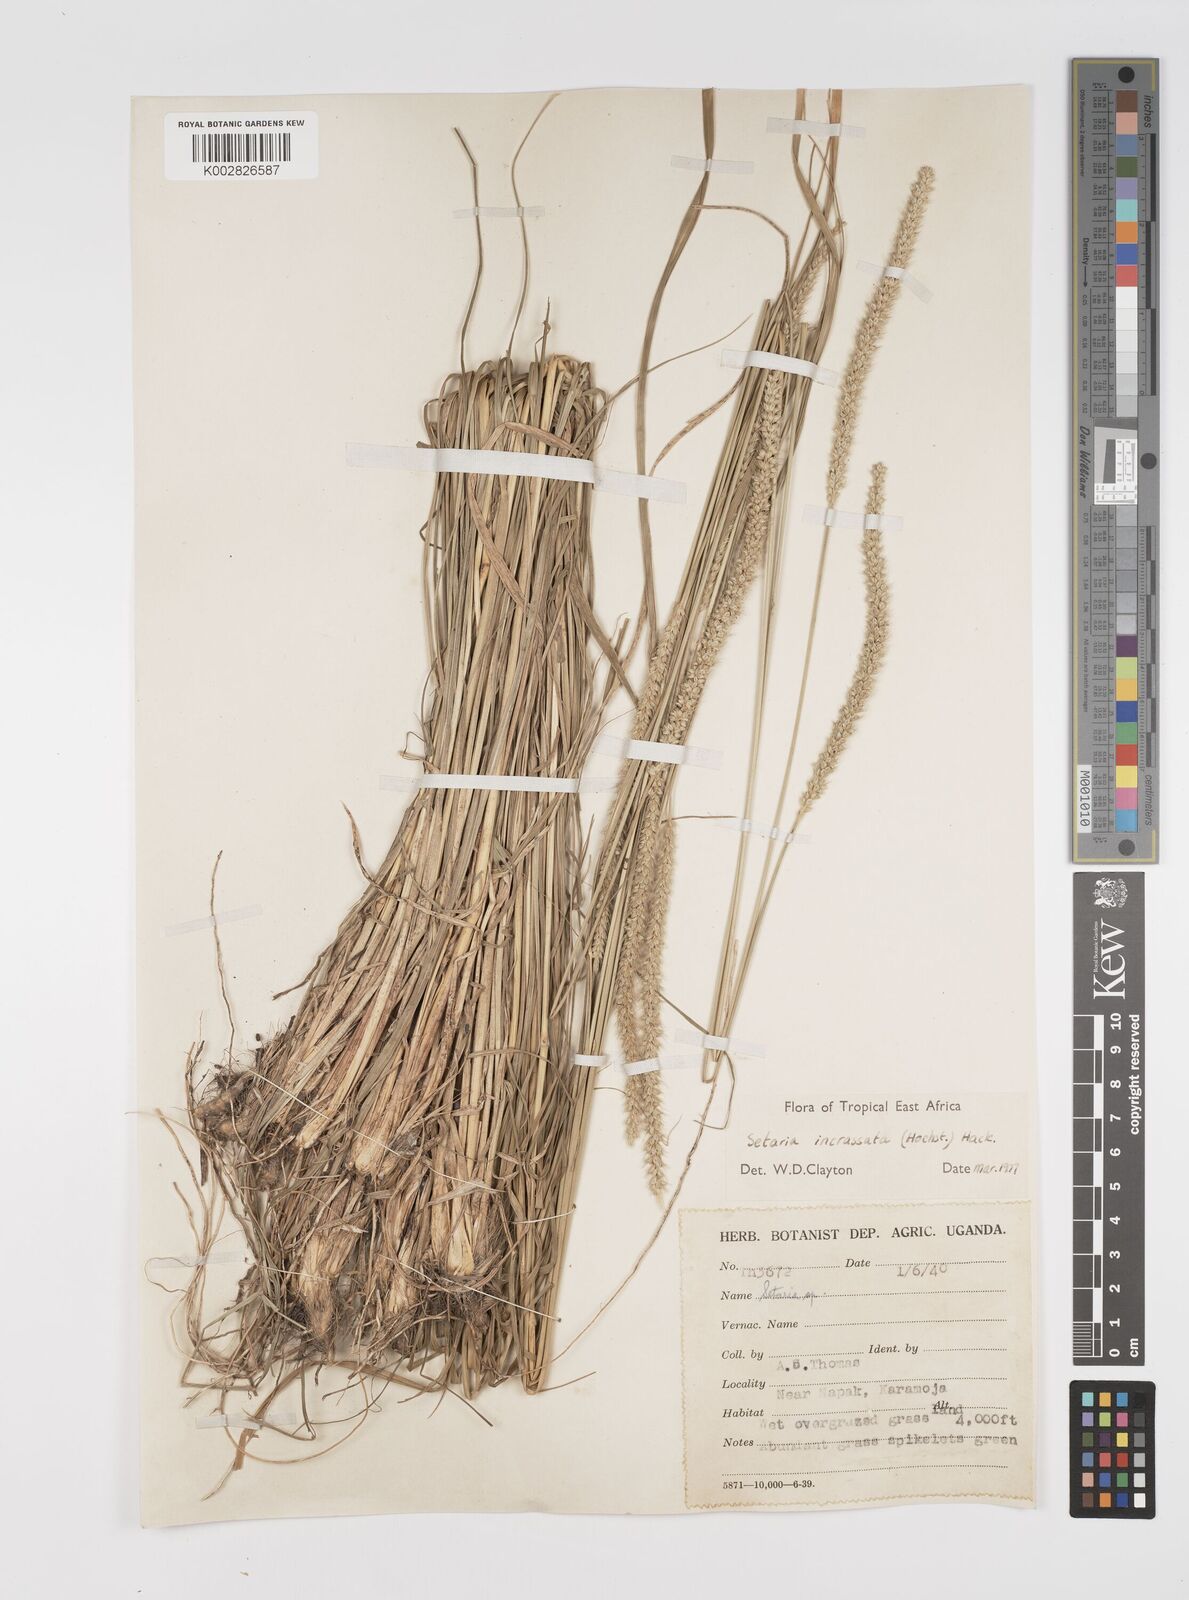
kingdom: Plantae
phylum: Tracheophyta
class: Liliopsida
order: Poales
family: Poaceae
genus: Setaria
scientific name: Setaria incrassata
